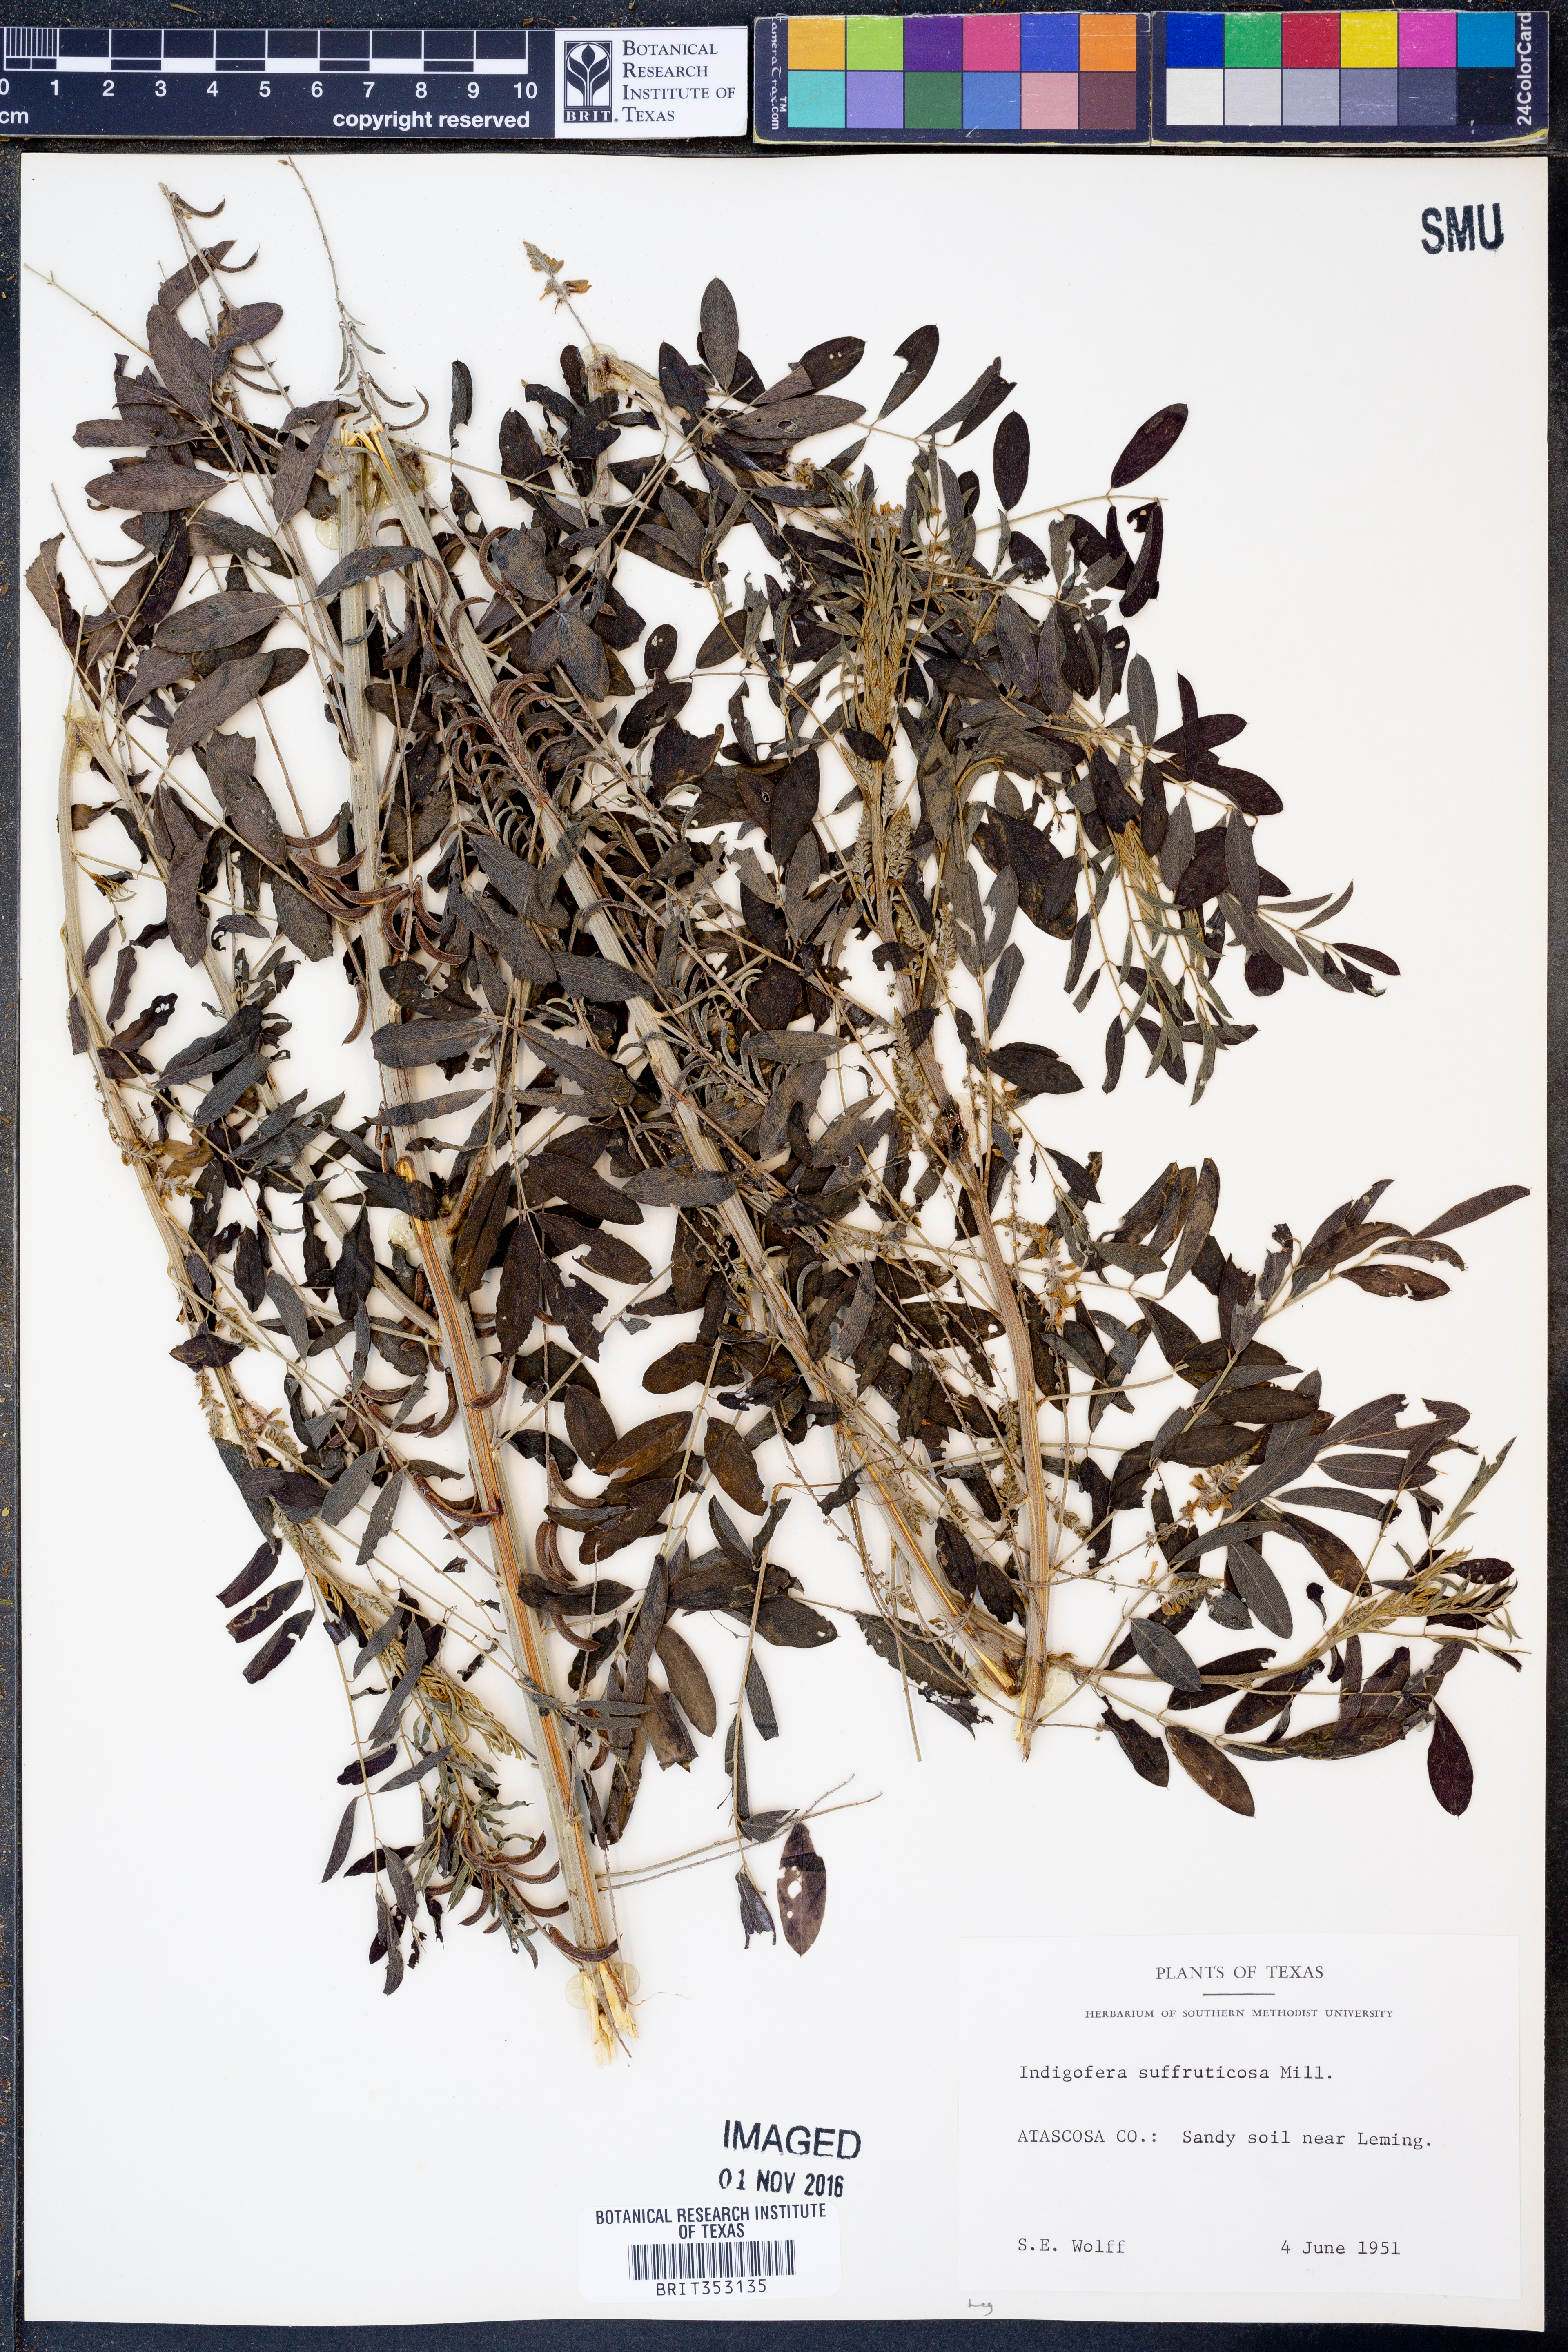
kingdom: Plantae
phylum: Tracheophyta
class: Magnoliopsida
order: Fabales
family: Fabaceae
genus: Indigofera
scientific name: Indigofera suffruticosa
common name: Anil de pasto
